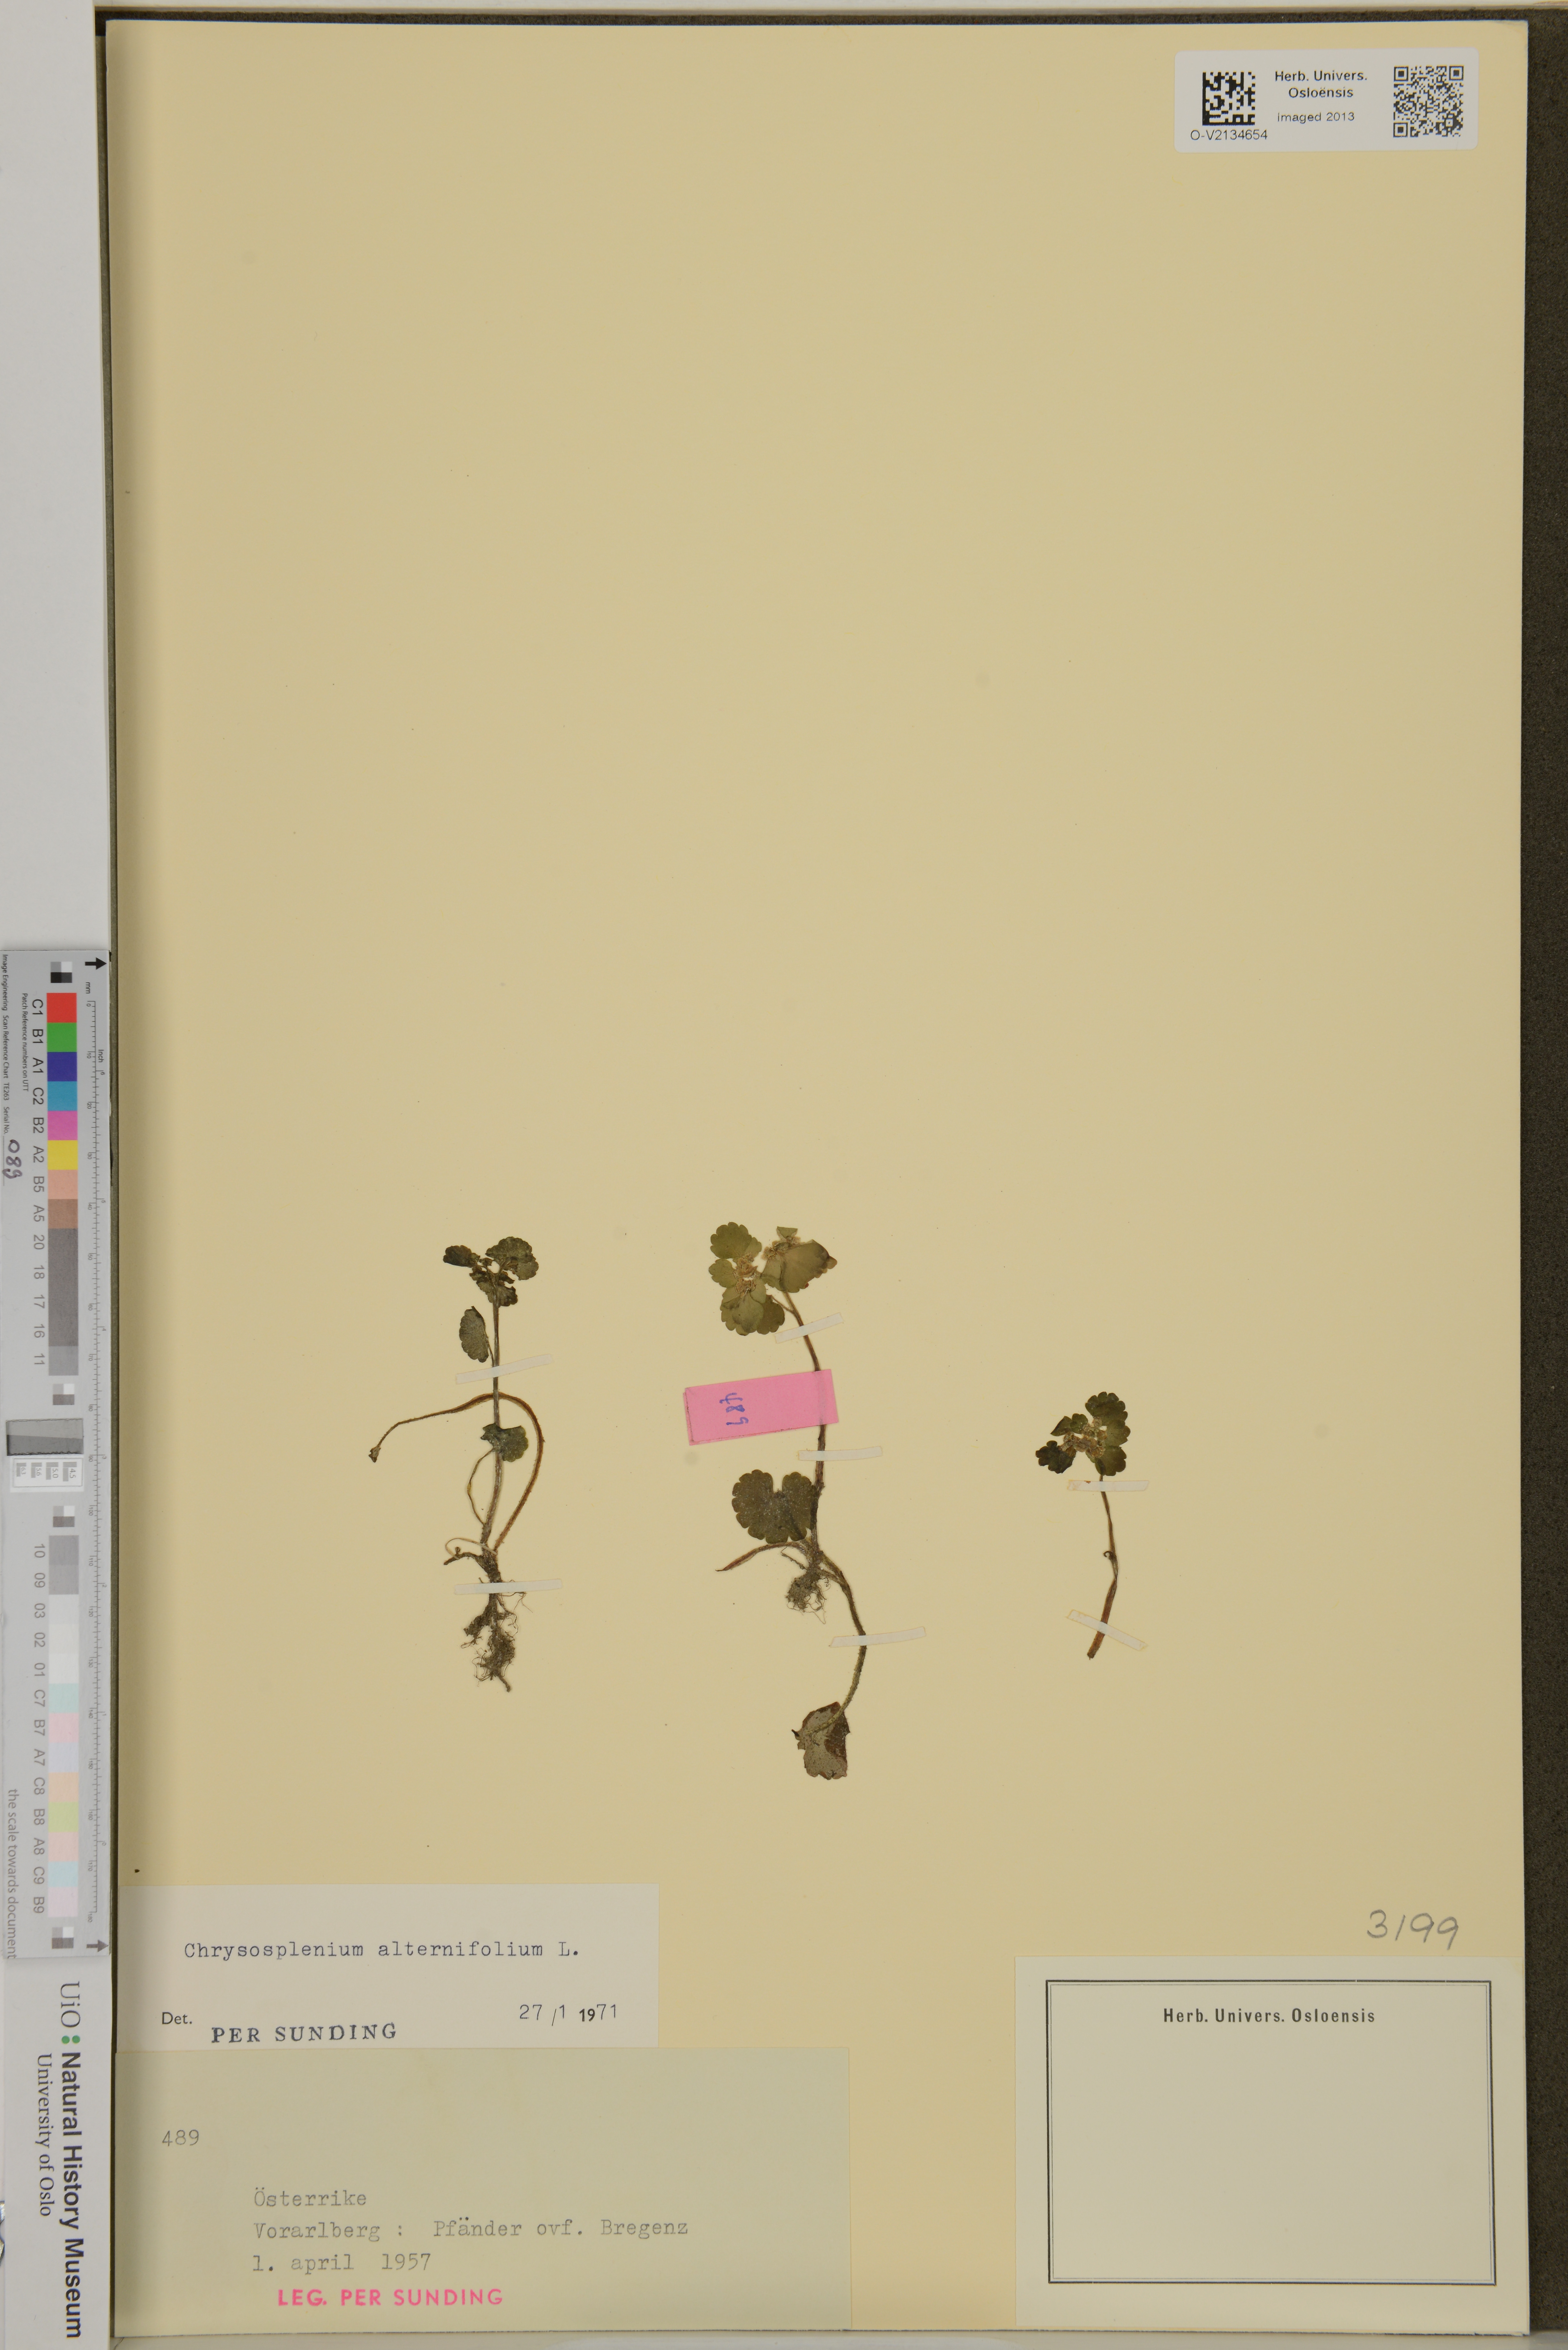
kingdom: Plantae
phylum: Tracheophyta
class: Magnoliopsida
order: Saxifragales
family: Saxifragaceae
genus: Chrysosplenium
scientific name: Chrysosplenium alternifolium
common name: Alternate-leaved golden-saxifrage
